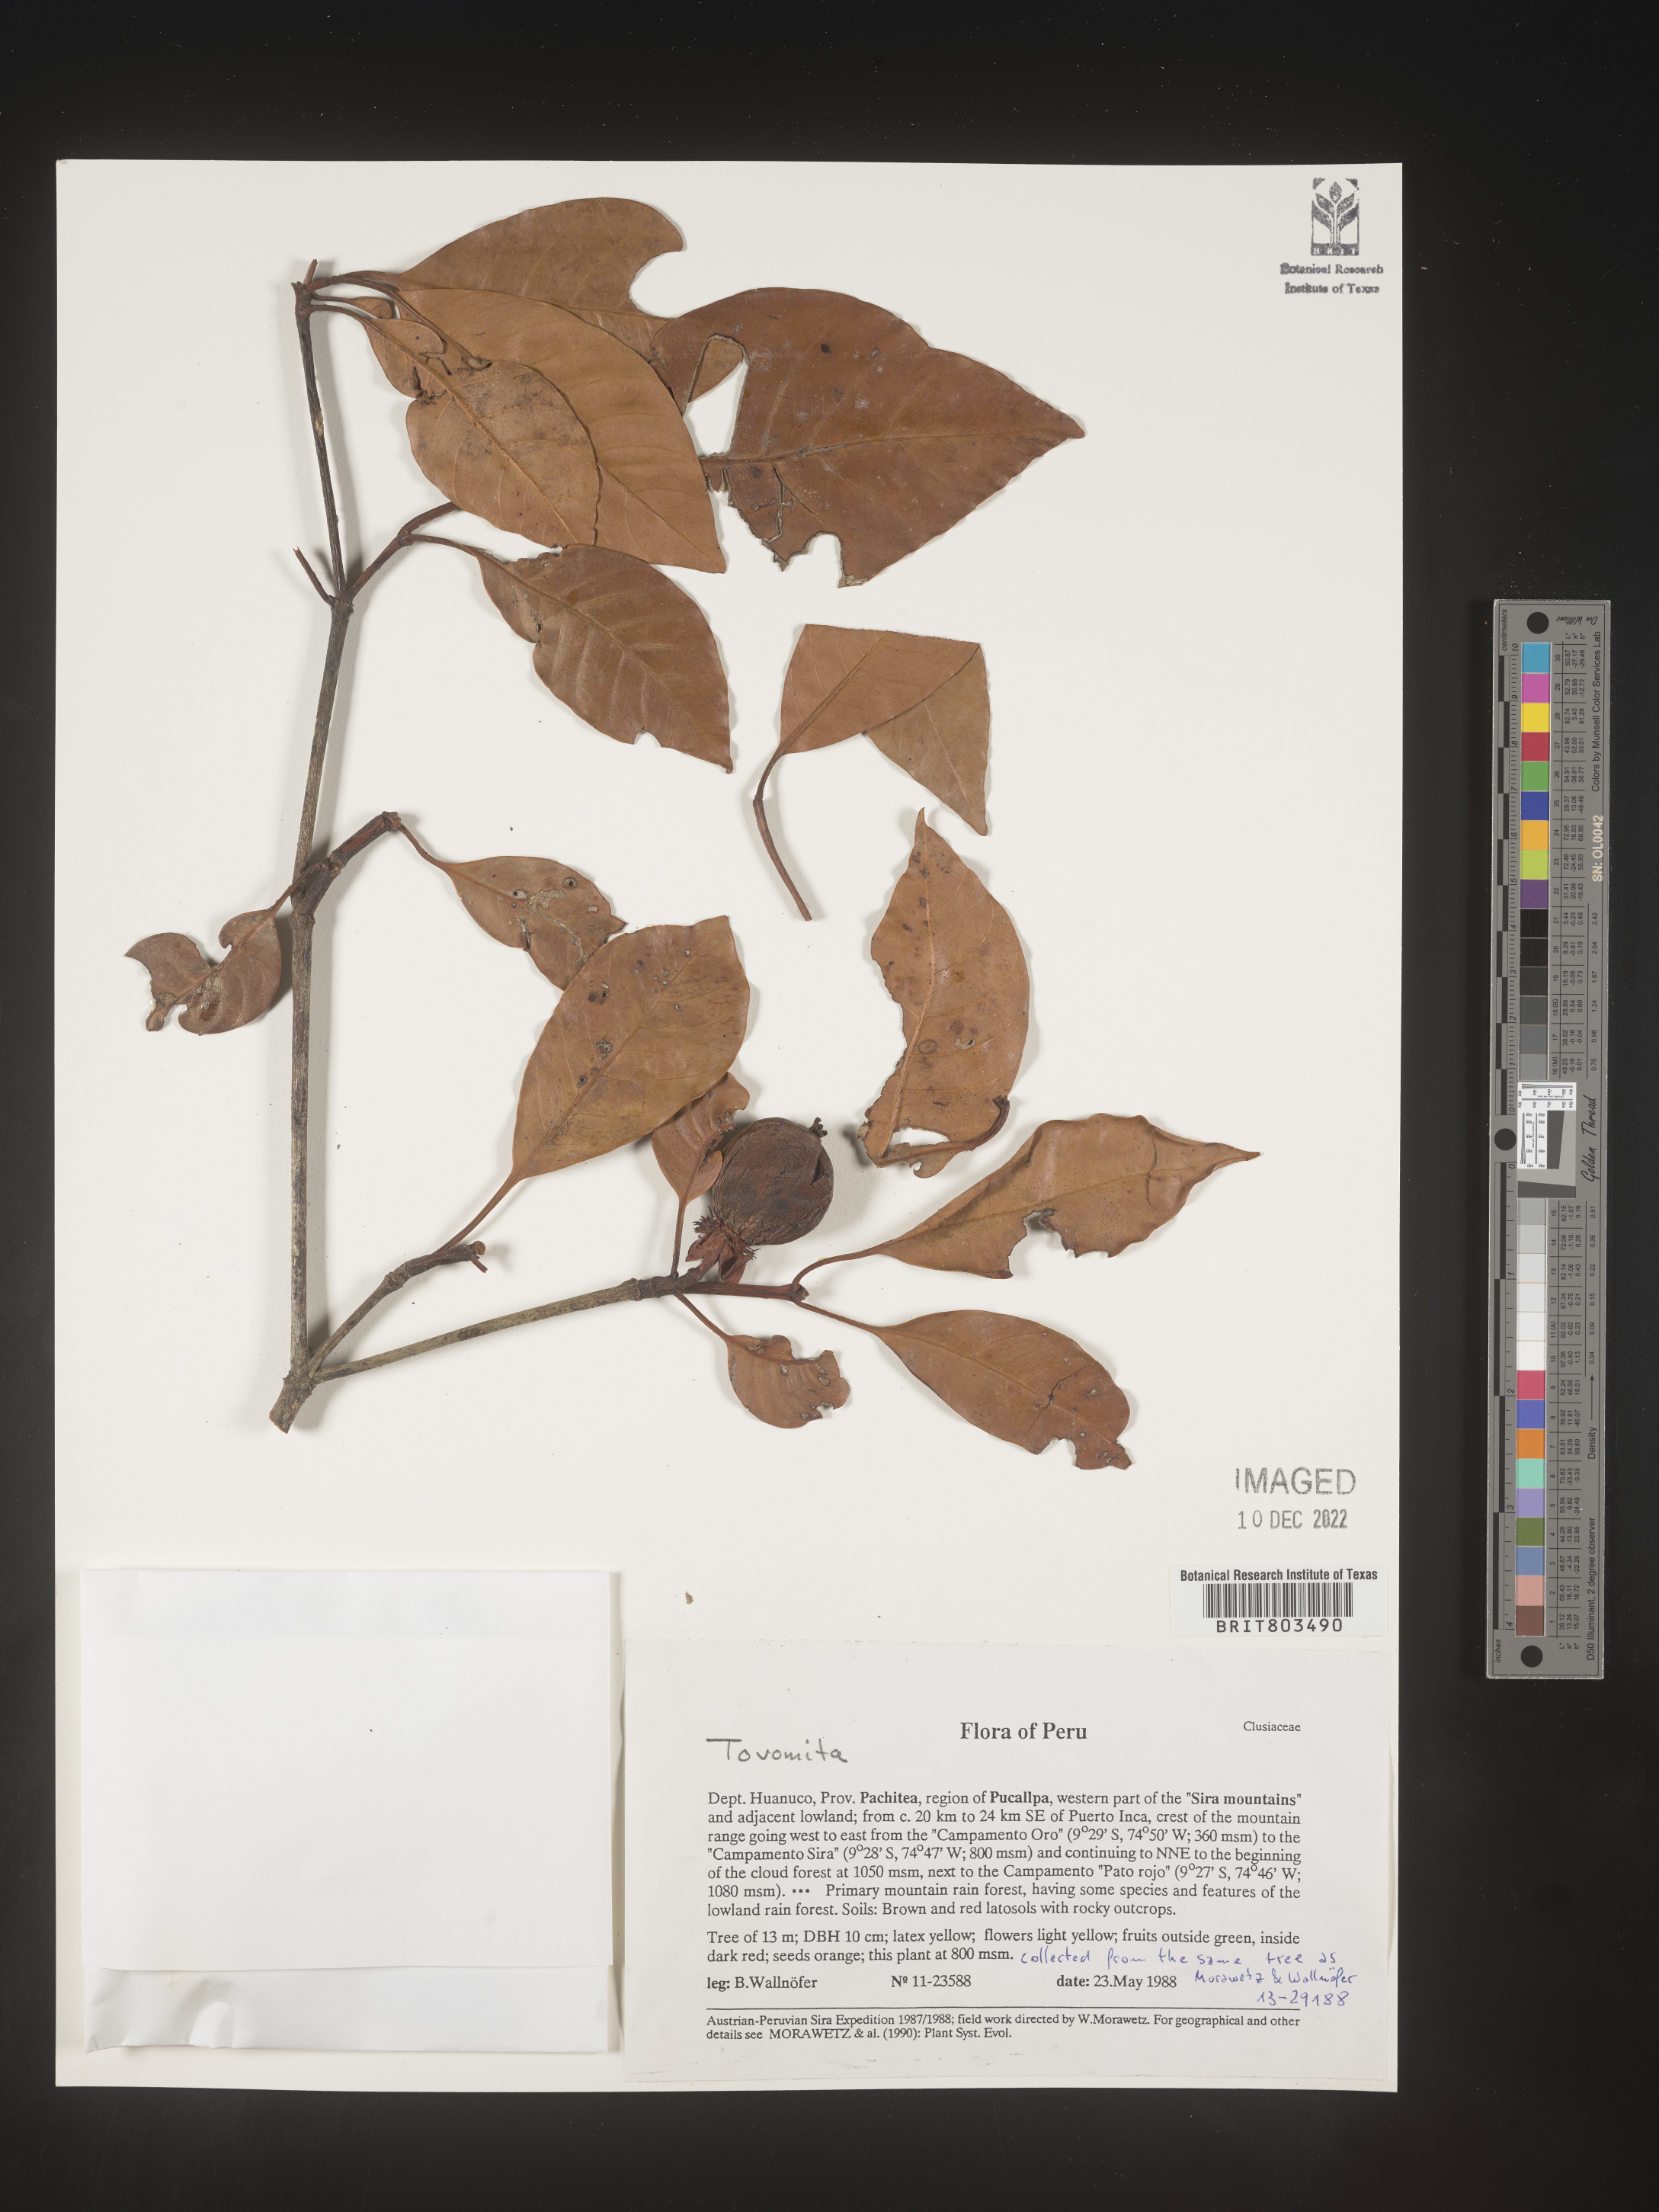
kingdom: Plantae
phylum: Tracheophyta
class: Magnoliopsida
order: Malpighiales
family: Clusiaceae
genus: Tovomita
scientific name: Tovomita
